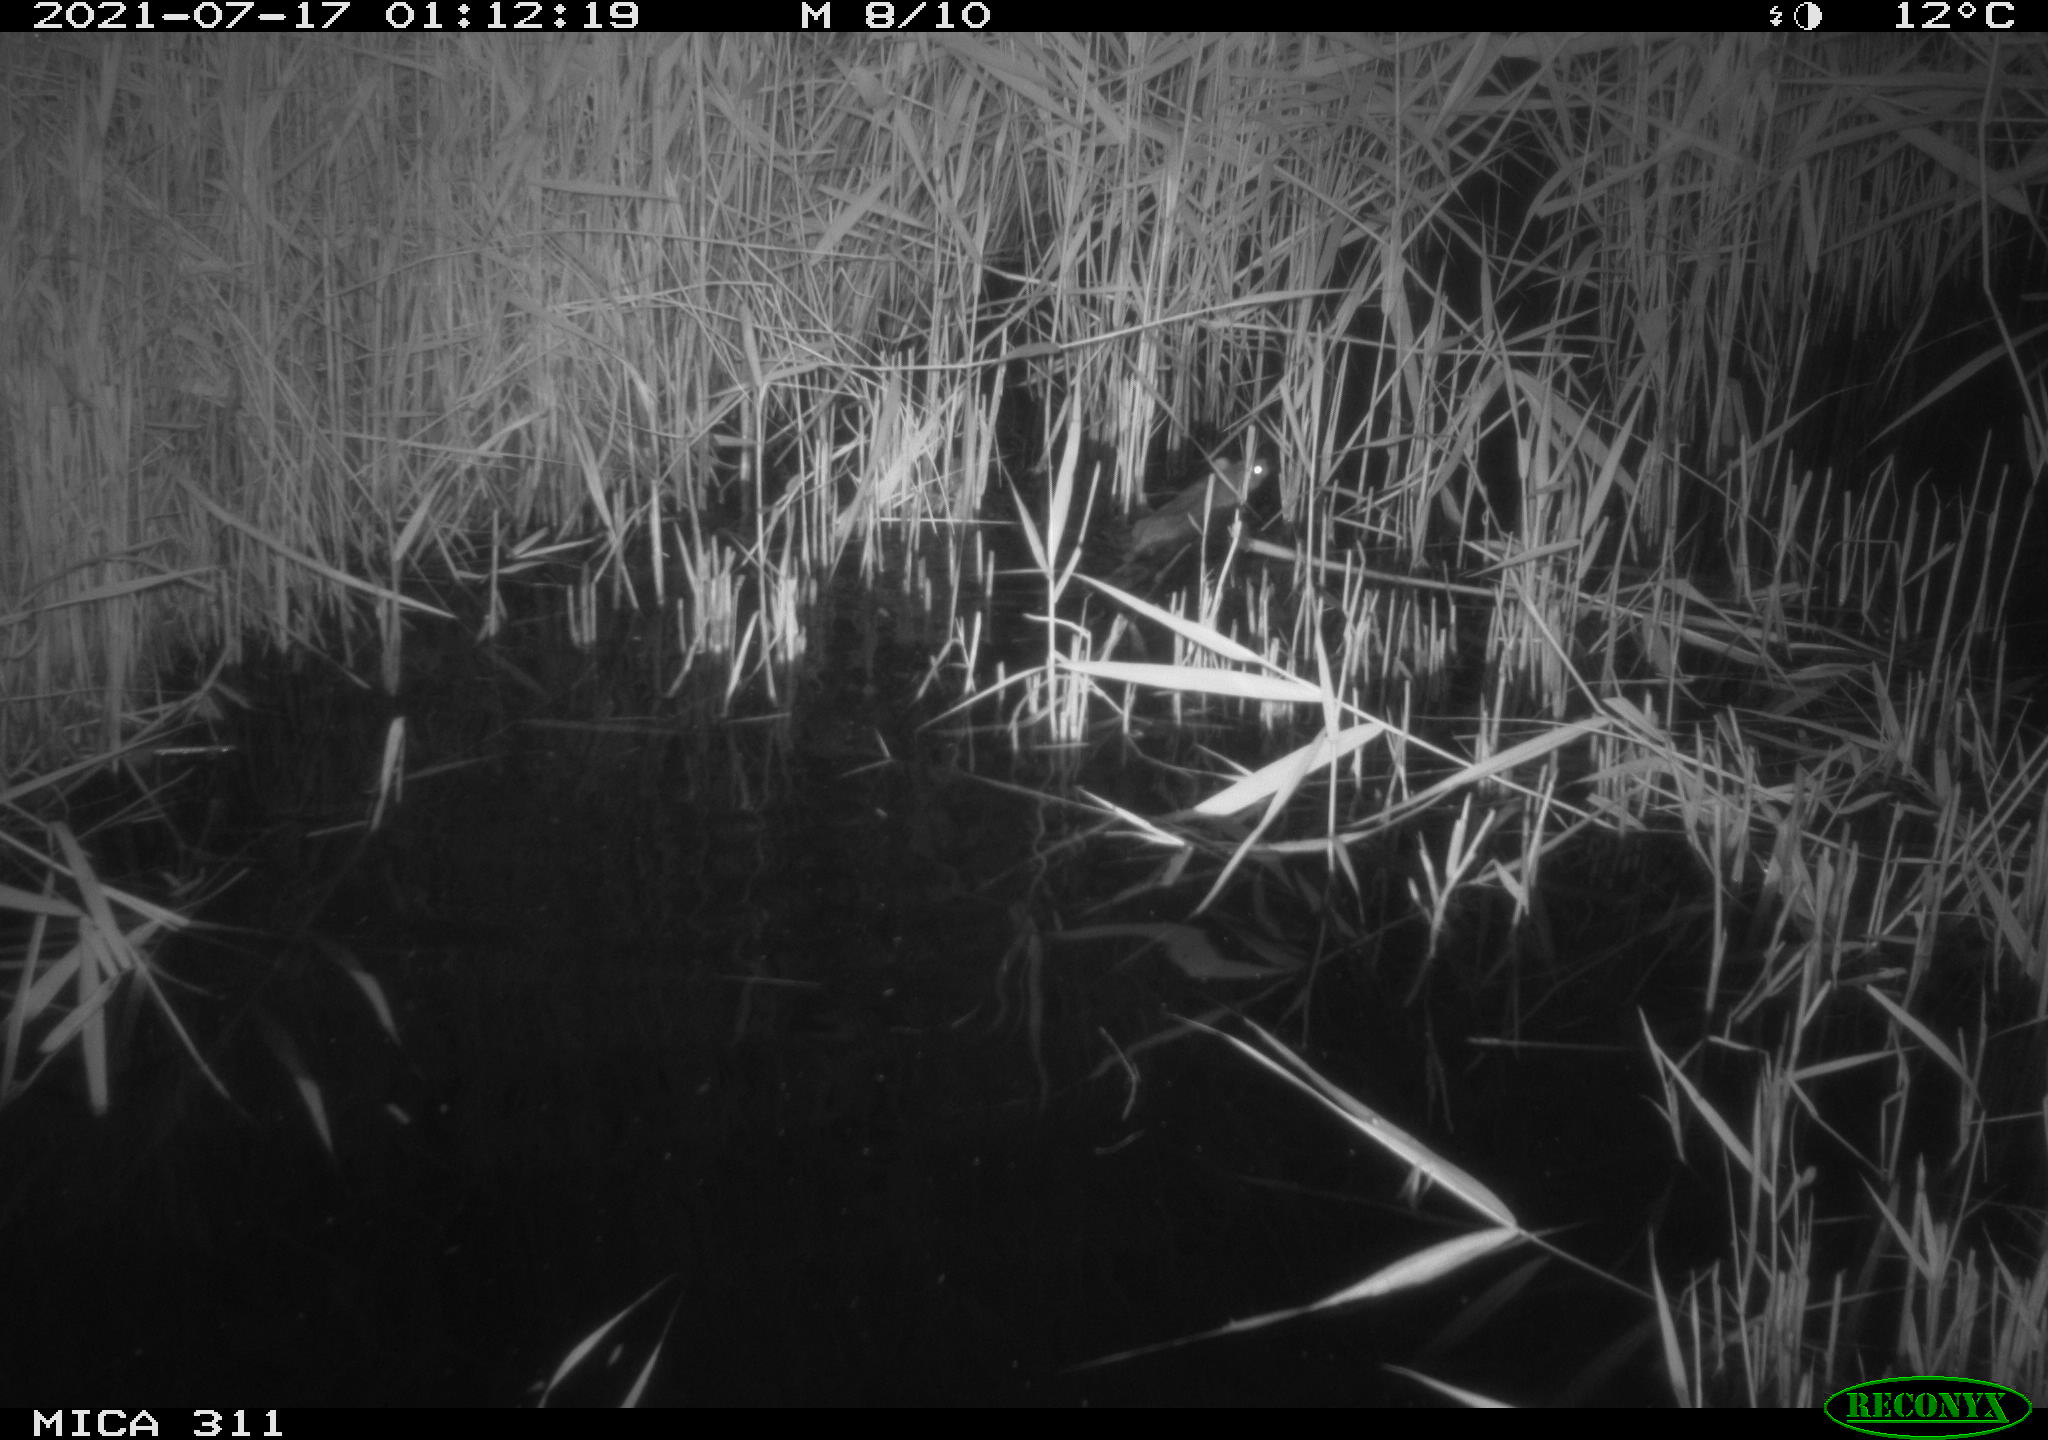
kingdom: Animalia
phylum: Chordata
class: Mammalia
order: Rodentia
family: Muridae
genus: Rattus
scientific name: Rattus norvegicus
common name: Brown rat
